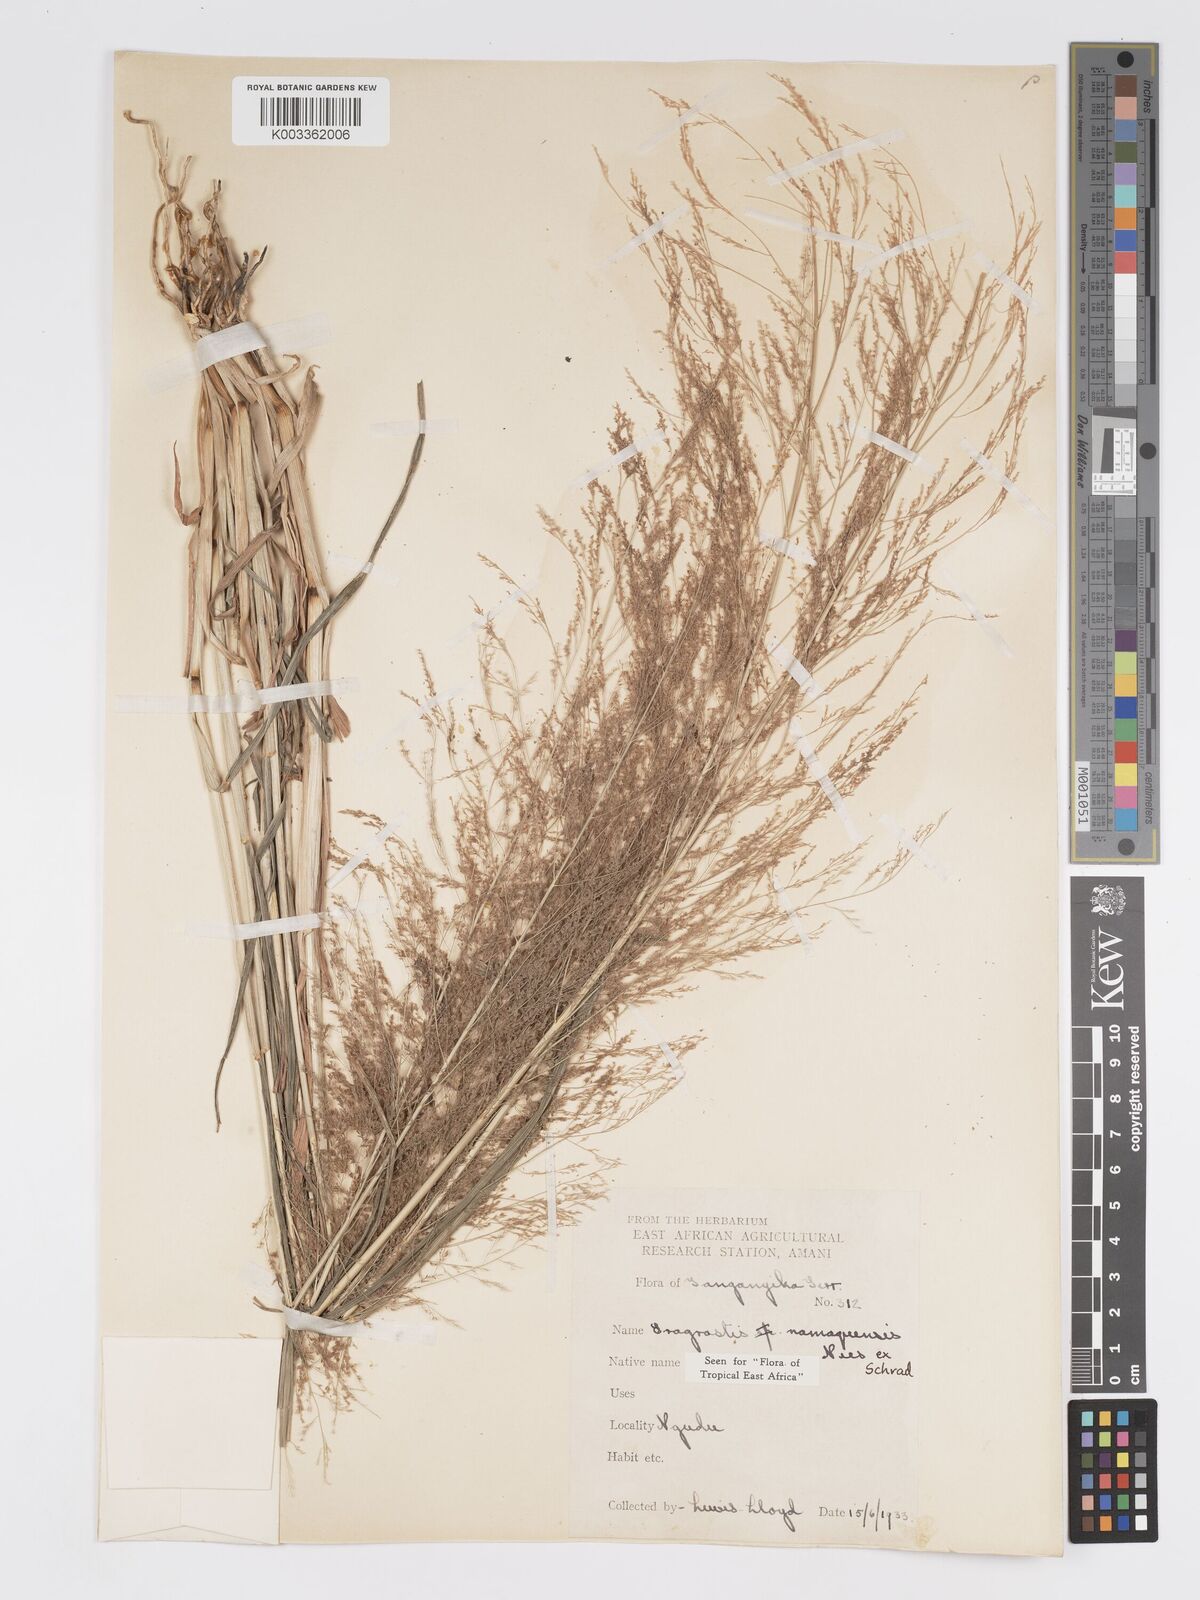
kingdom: Plantae
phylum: Tracheophyta
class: Liliopsida
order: Poales
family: Poaceae
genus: Eragrostis
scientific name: Eragrostis japonica
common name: Pond lovegrass
